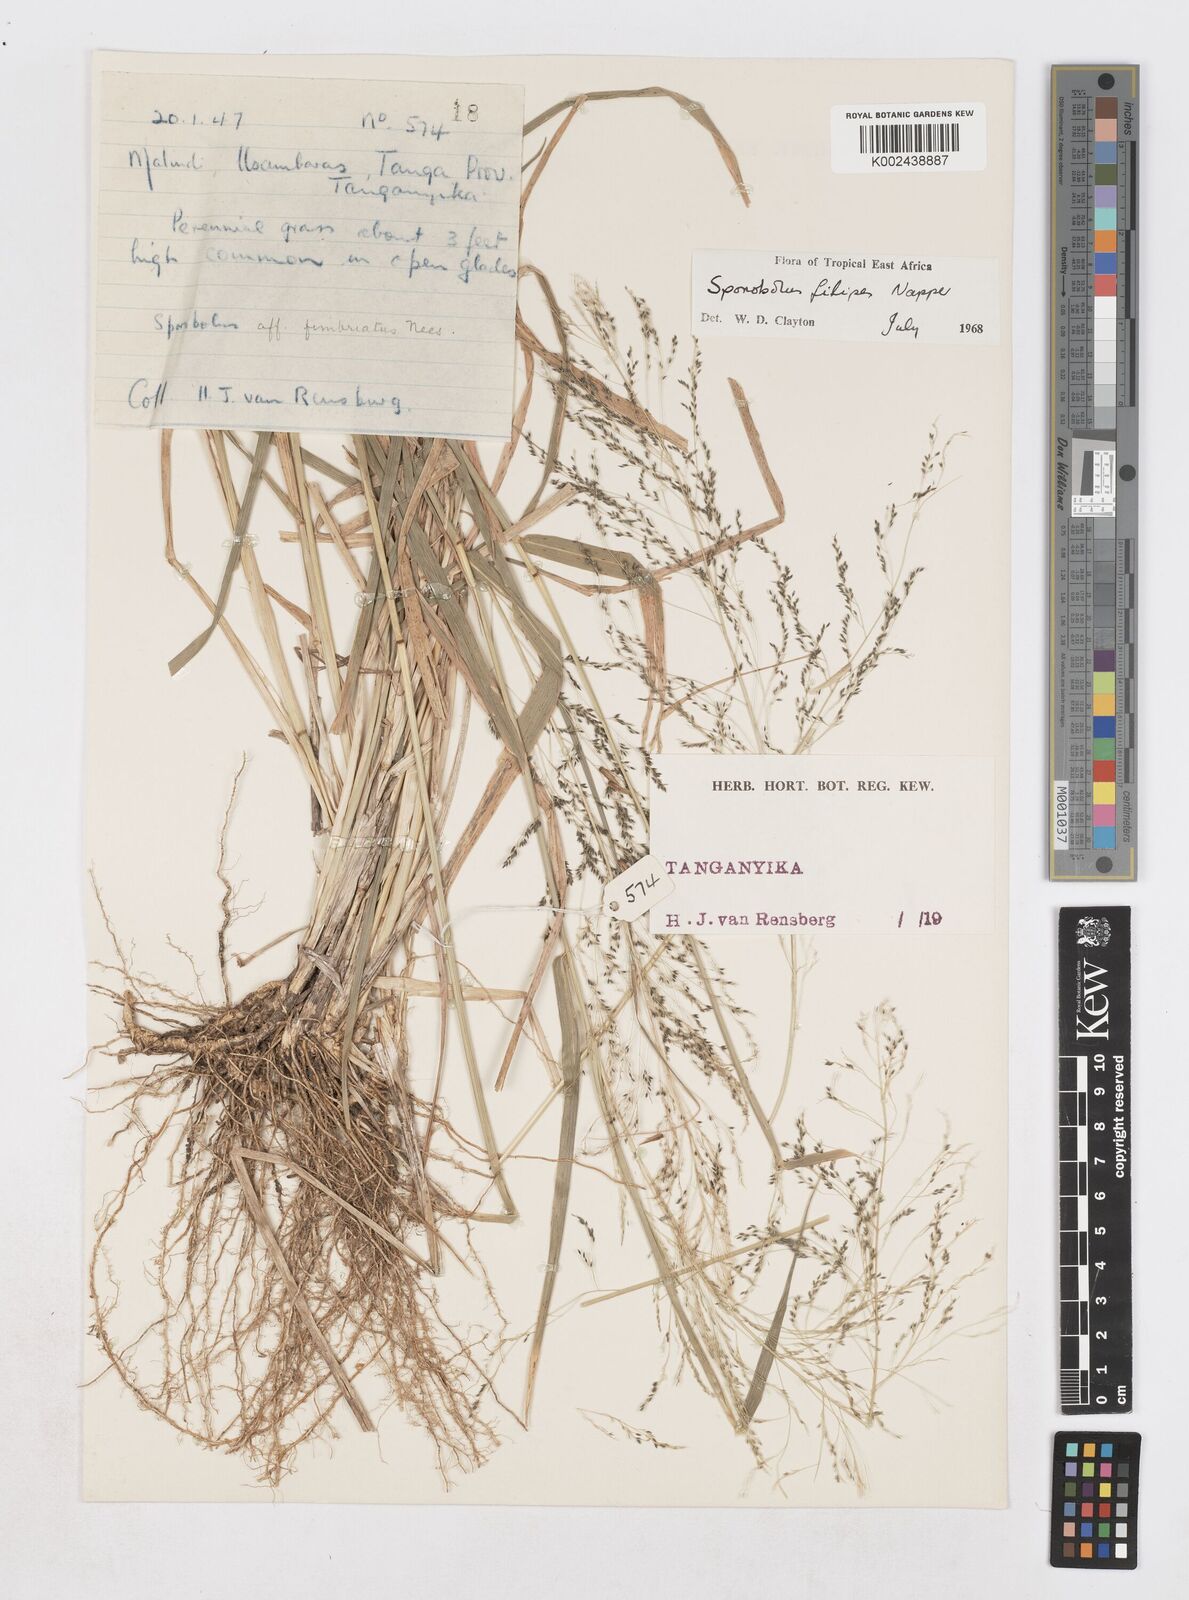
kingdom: Plantae
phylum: Tracheophyta
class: Liliopsida
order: Poales
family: Poaceae
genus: Sporobolus
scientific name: Sporobolus agrostoides
